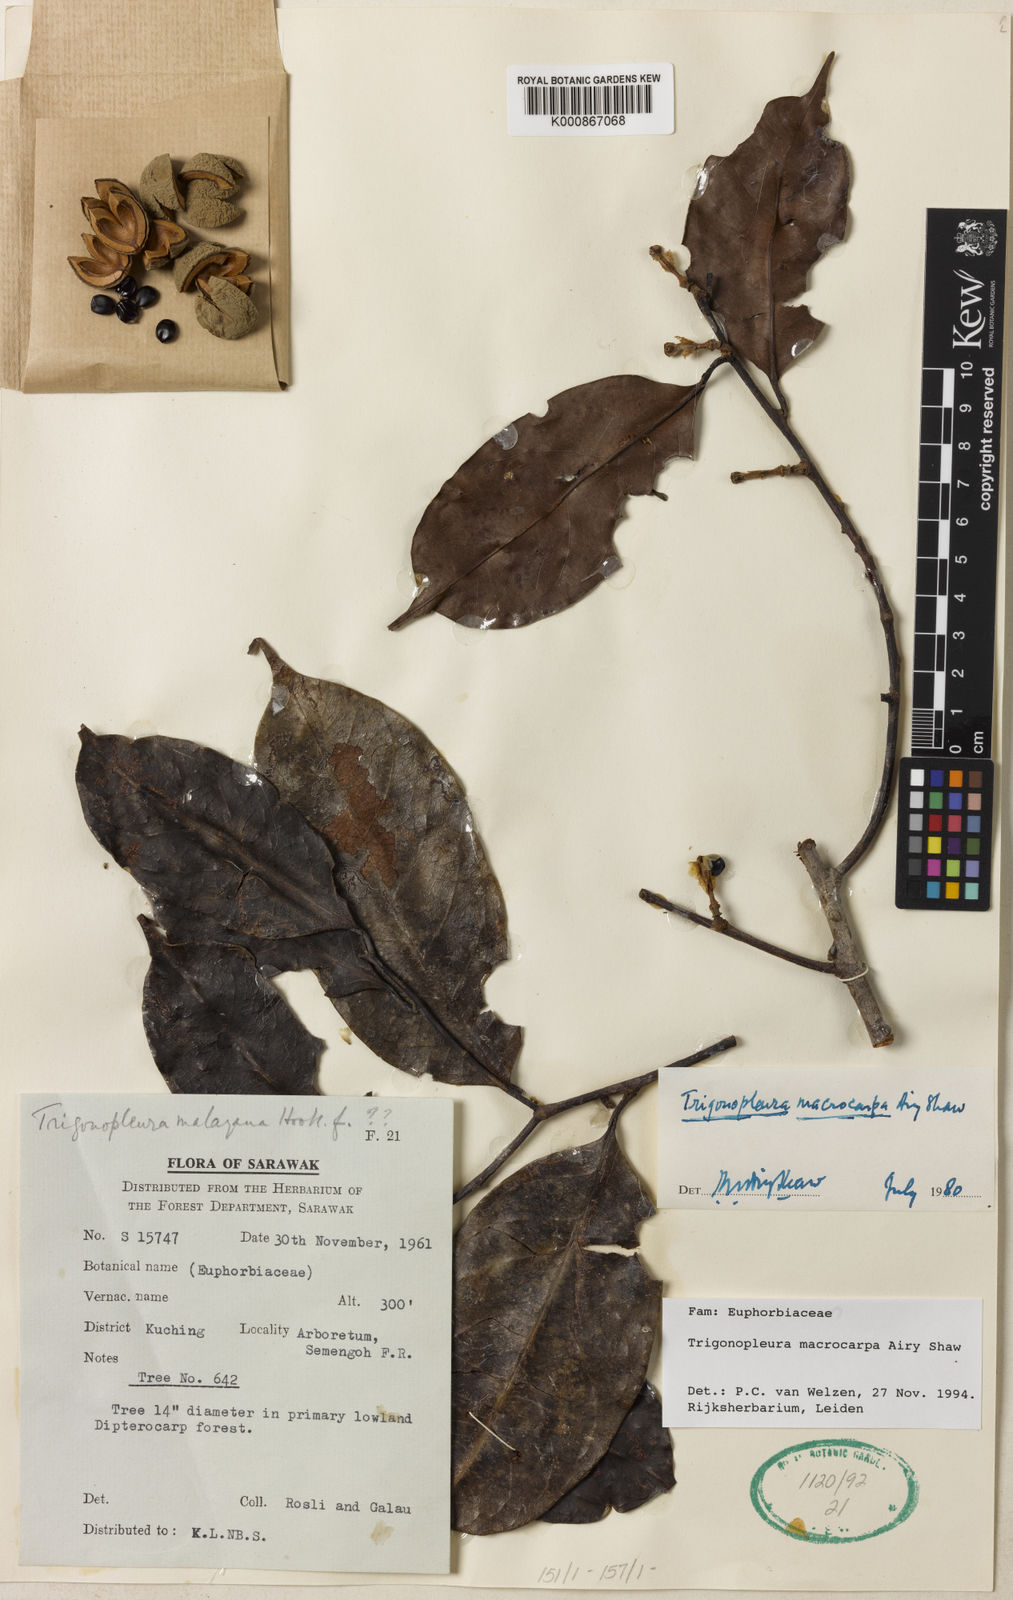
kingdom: Plantae
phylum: Tracheophyta
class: Magnoliopsida
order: Malpighiales
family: Peraceae
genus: Trigonopleura
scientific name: Trigonopleura macrocarpa
